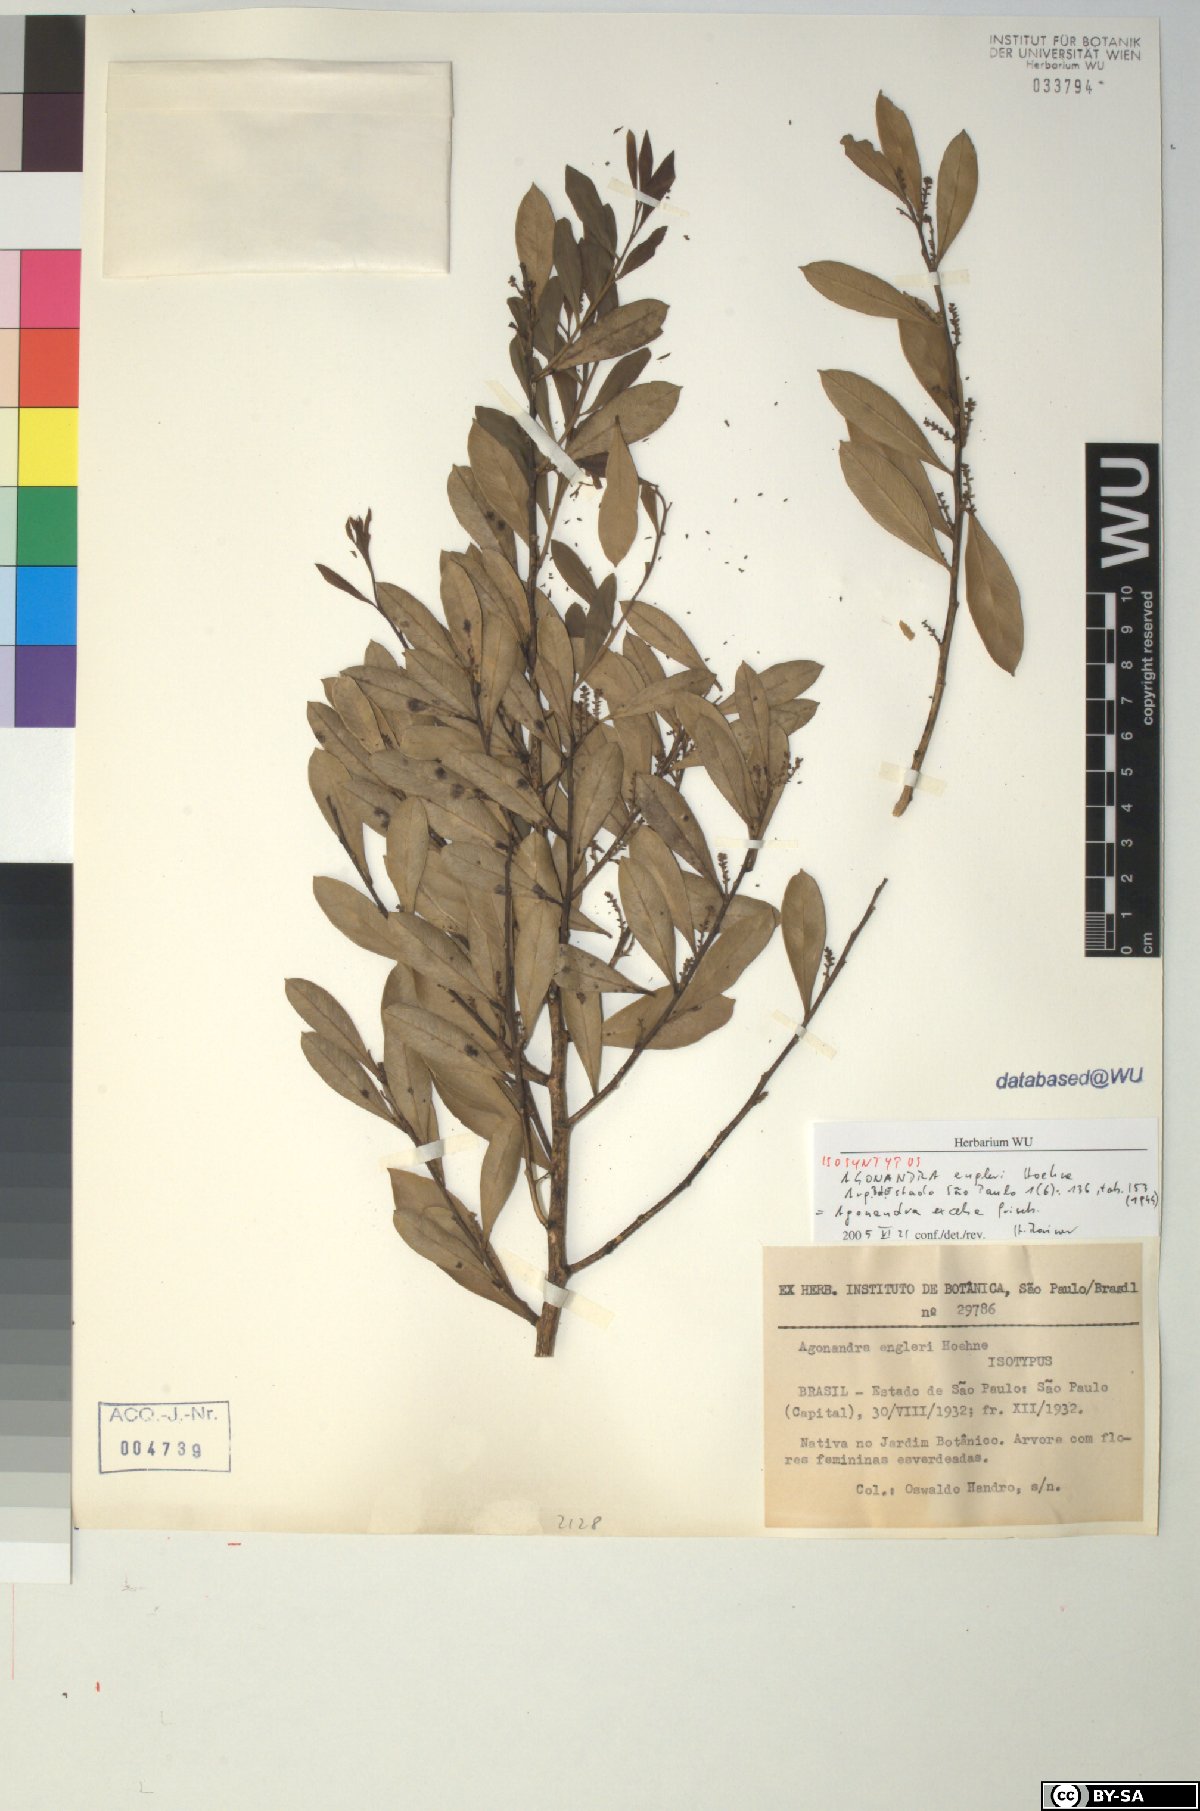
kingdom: Plantae
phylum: Tracheophyta
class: Magnoliopsida
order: Santalales
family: Opiliaceae
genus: Agonandra
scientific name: Agonandra excelsa
